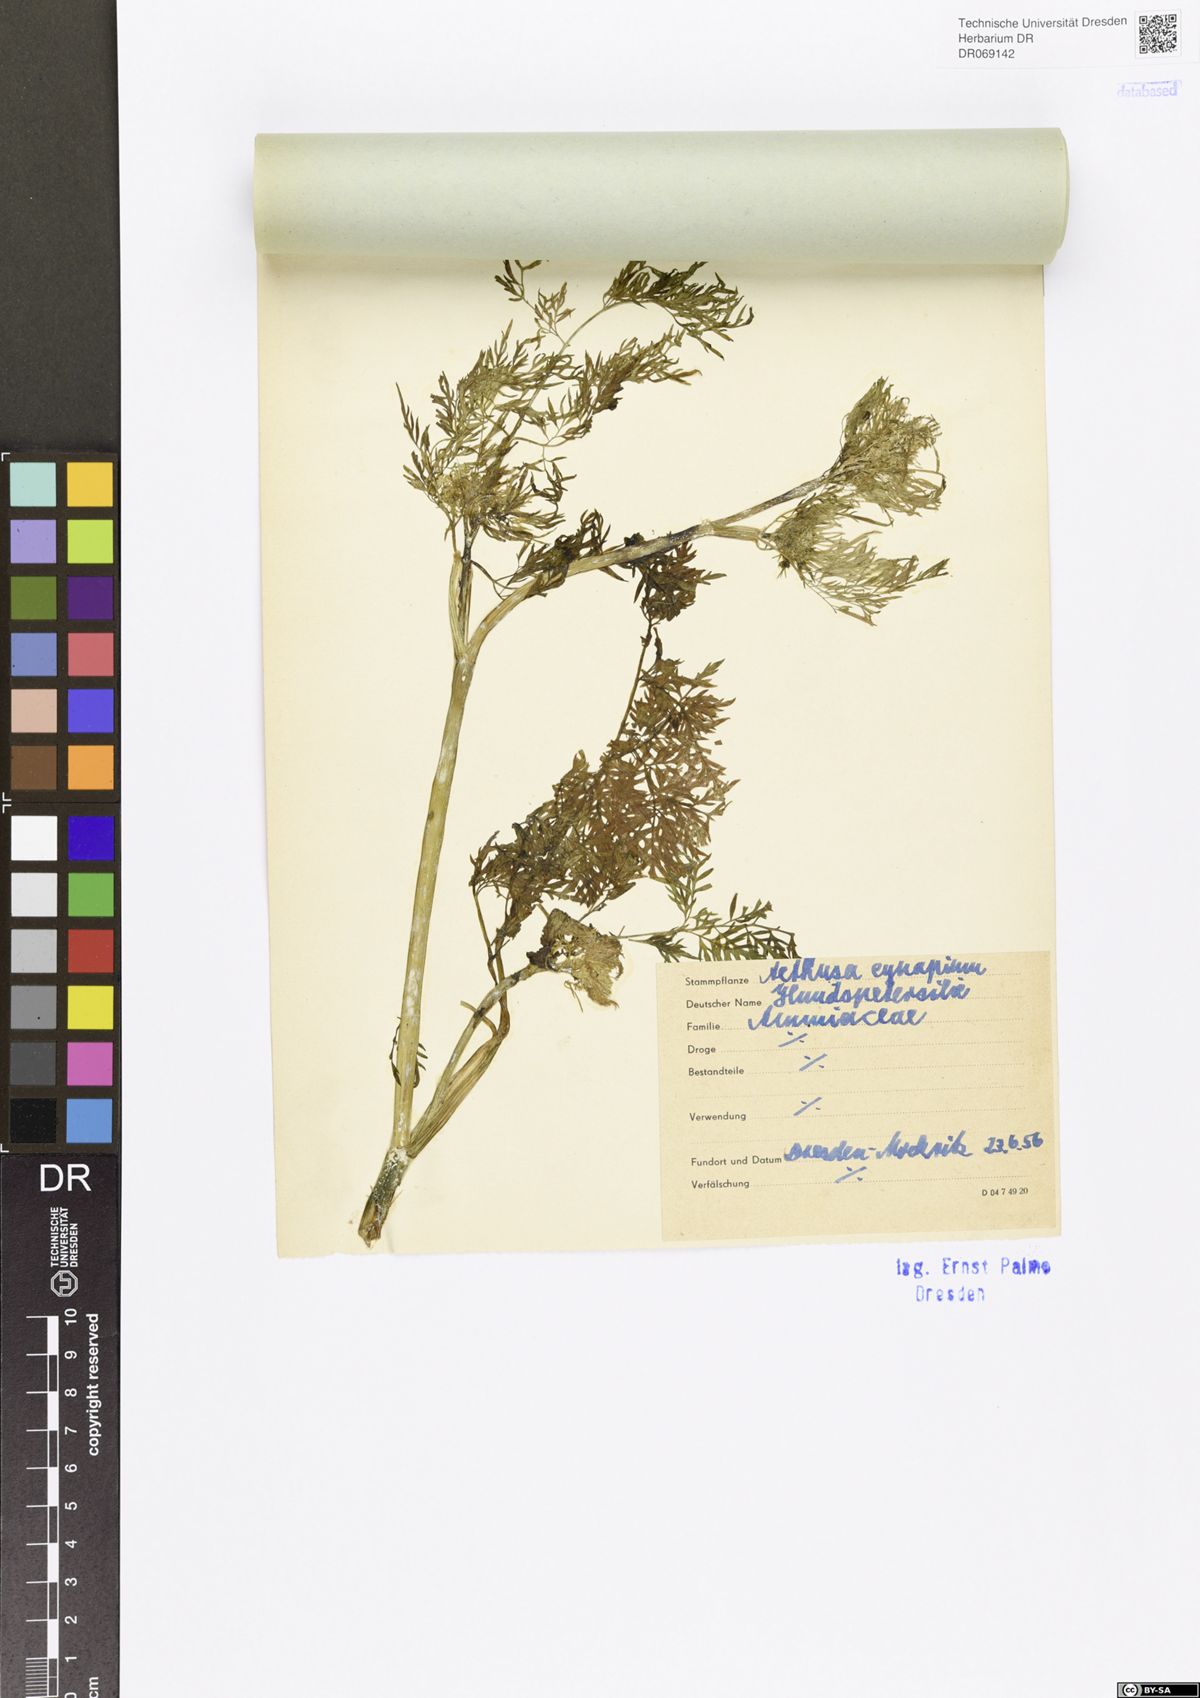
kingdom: Plantae
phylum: Tracheophyta
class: Magnoliopsida
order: Apiales
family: Apiaceae
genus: Aethusa
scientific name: Aethusa cynapium
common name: Fool's parsley
